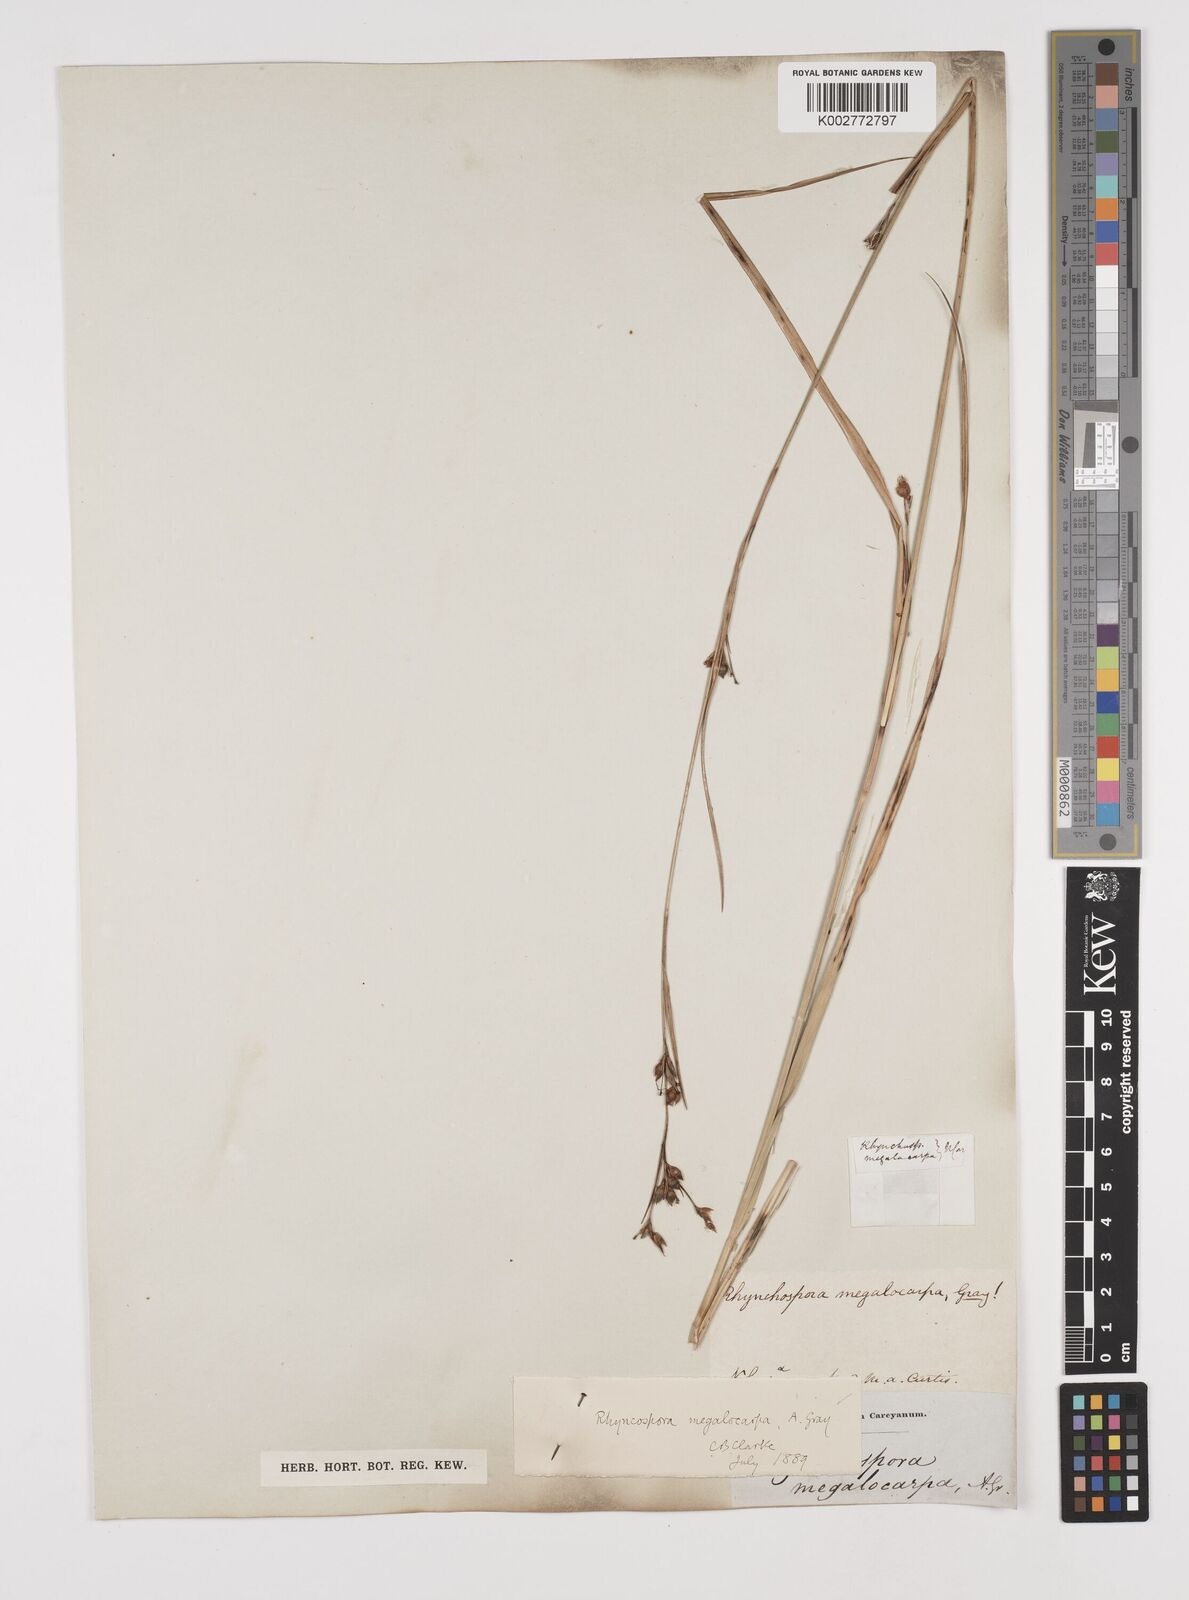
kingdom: Plantae
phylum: Tracheophyta
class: Liliopsida
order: Poales
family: Cyperaceae
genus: Rhynchospora
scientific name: Rhynchospora megalocarpa
